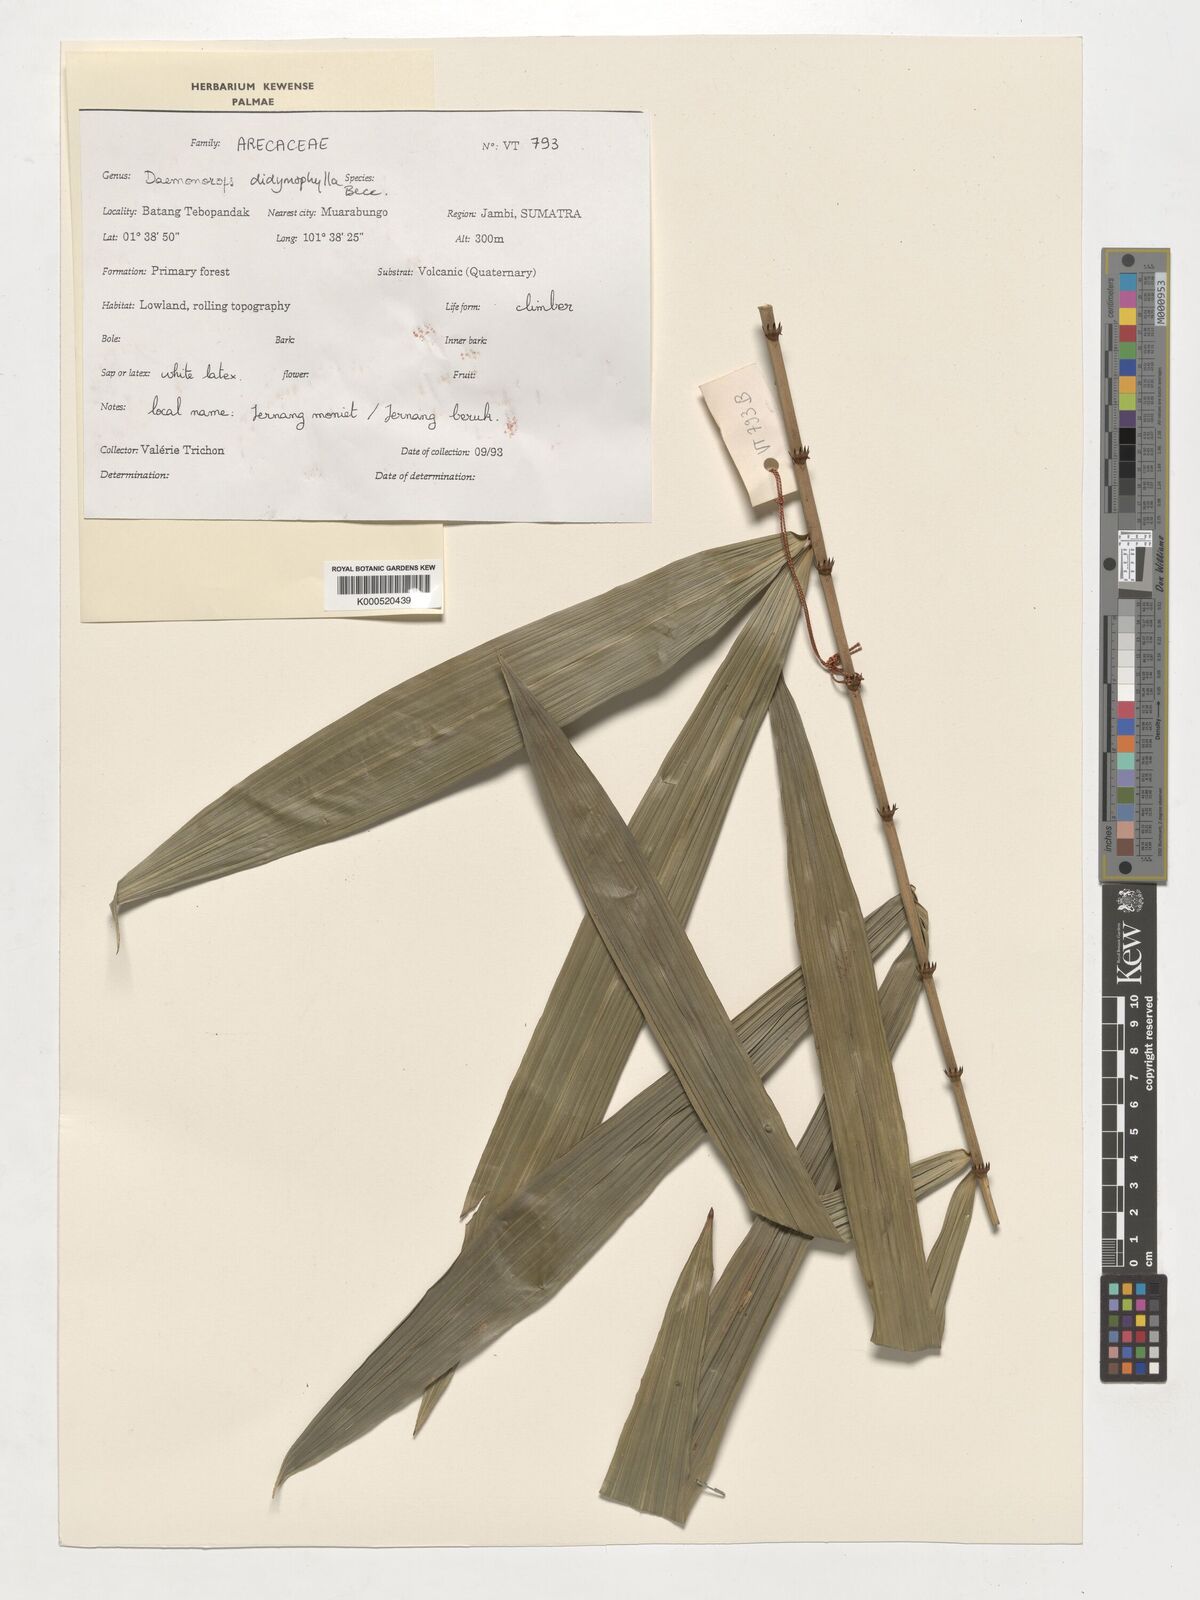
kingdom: Plantae
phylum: Tracheophyta
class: Liliopsida
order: Arecales
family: Arecaceae
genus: Calamus
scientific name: Calamus gracilipes
